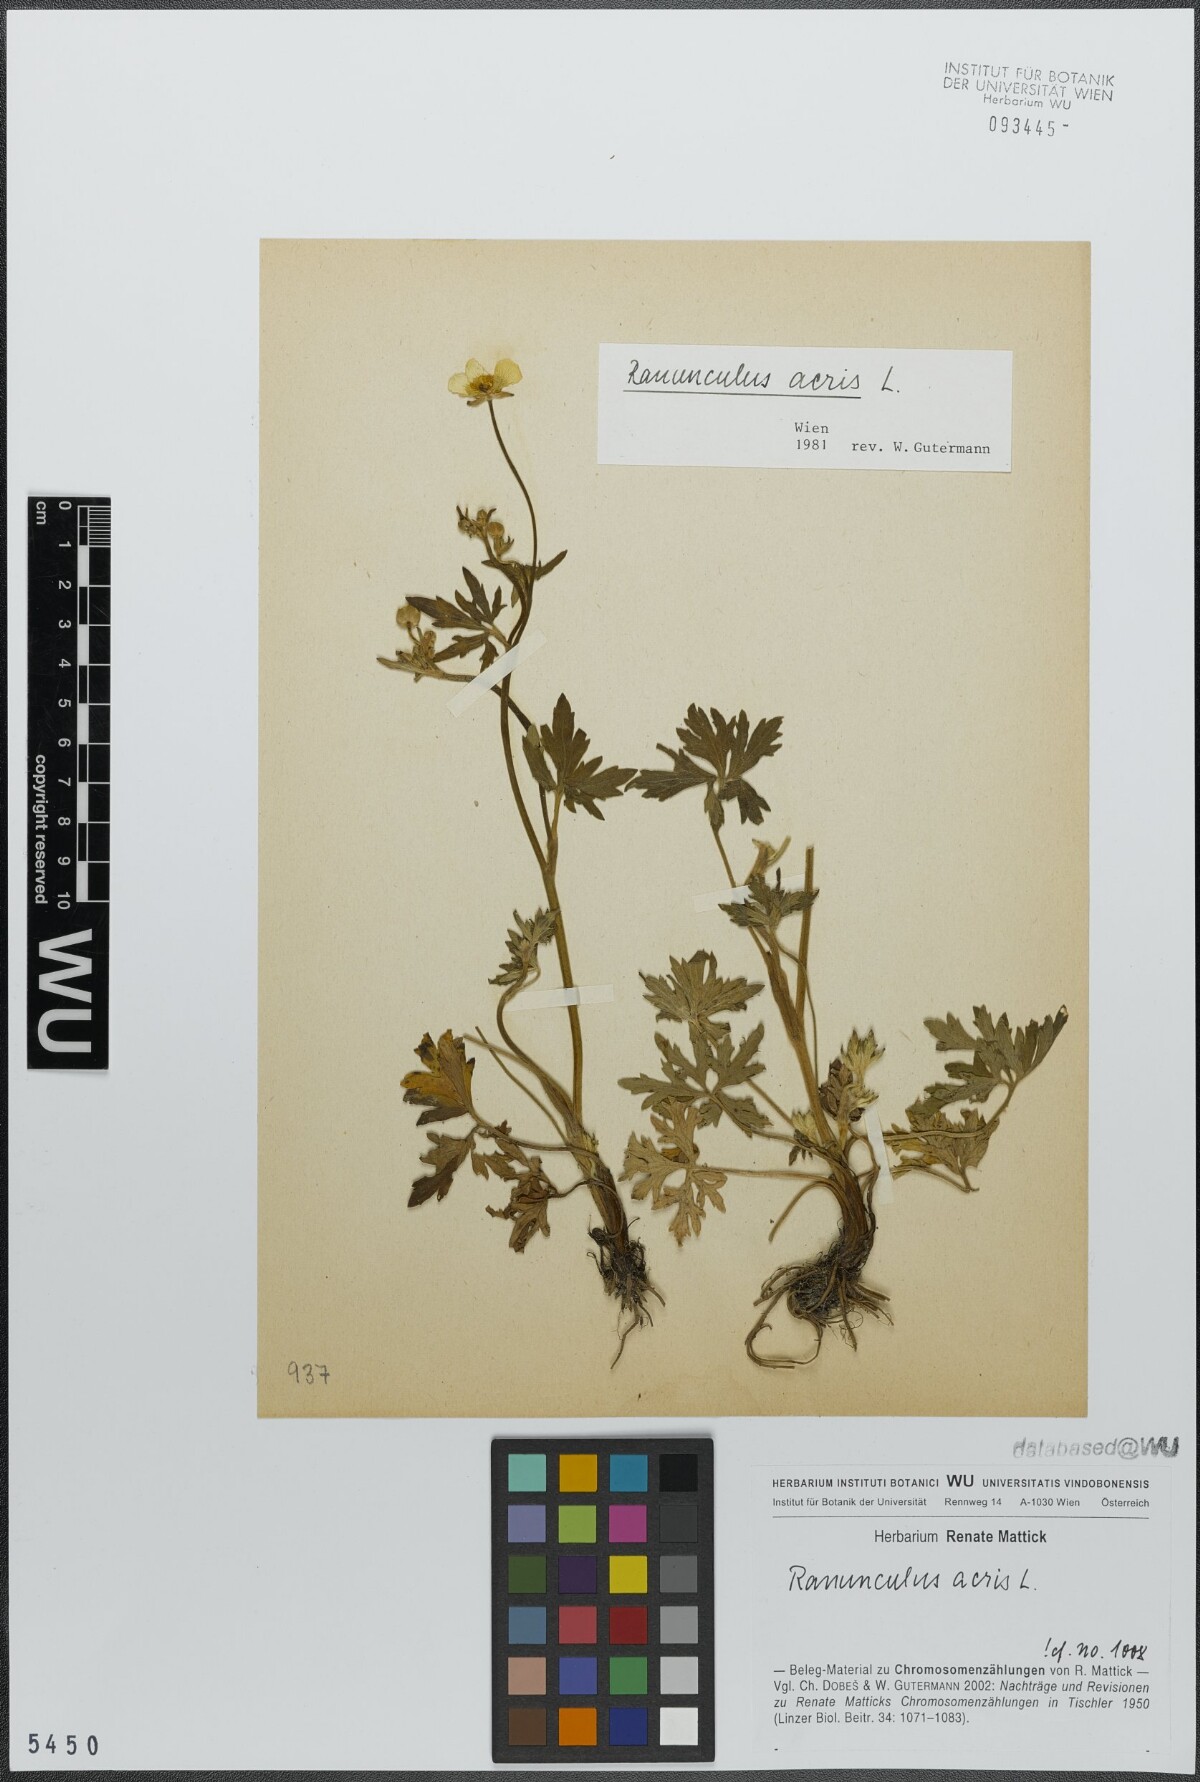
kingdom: Plantae
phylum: Tracheophyta
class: Magnoliopsida
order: Ranunculales
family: Ranunculaceae
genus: Ranunculus
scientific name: Ranunculus acris
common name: Meadow buttercup
